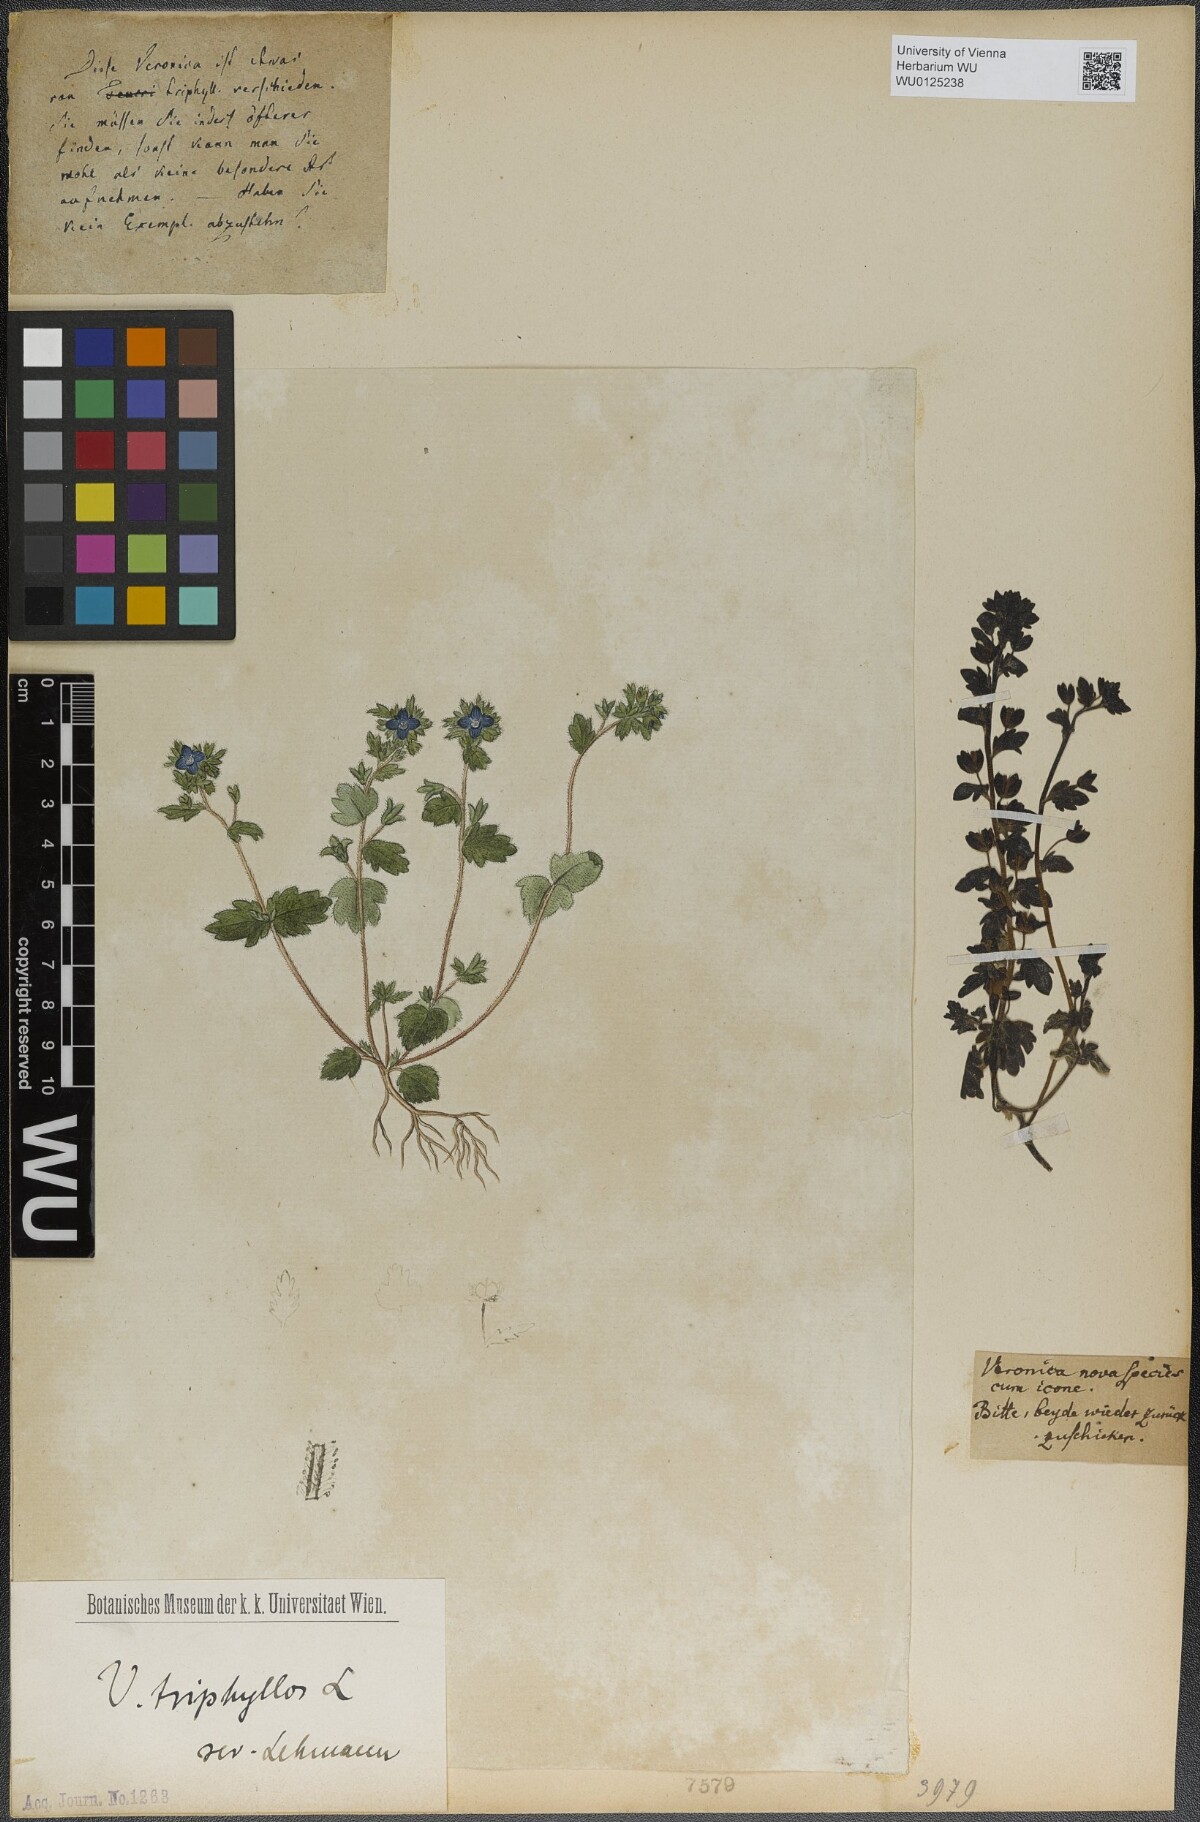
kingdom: Plantae
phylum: Tracheophyta
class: Magnoliopsida
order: Lamiales
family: Plantaginaceae
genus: Veronica
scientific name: Veronica triphyllos
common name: Fingered speedwell
